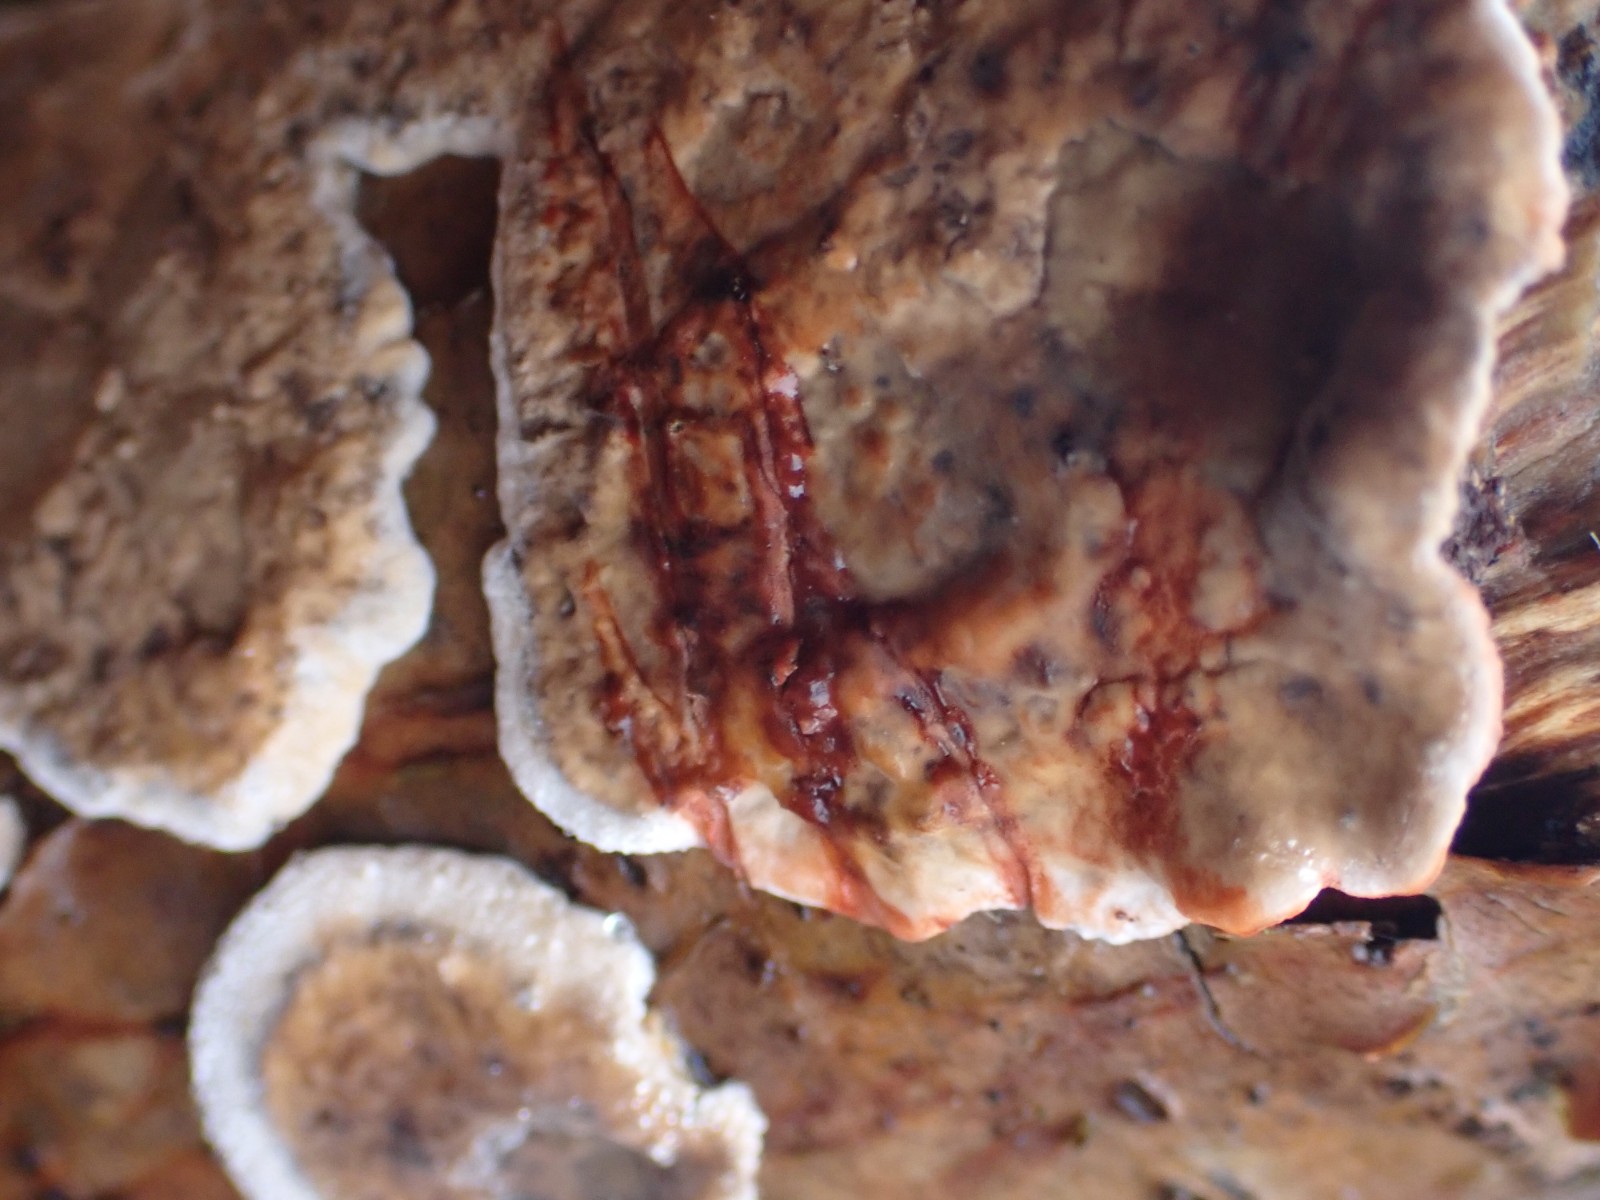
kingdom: Fungi
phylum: Basidiomycota
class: Agaricomycetes
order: Russulales
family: Stereaceae
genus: Stereum
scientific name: Stereum rugosum
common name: rynket lædersvamp
